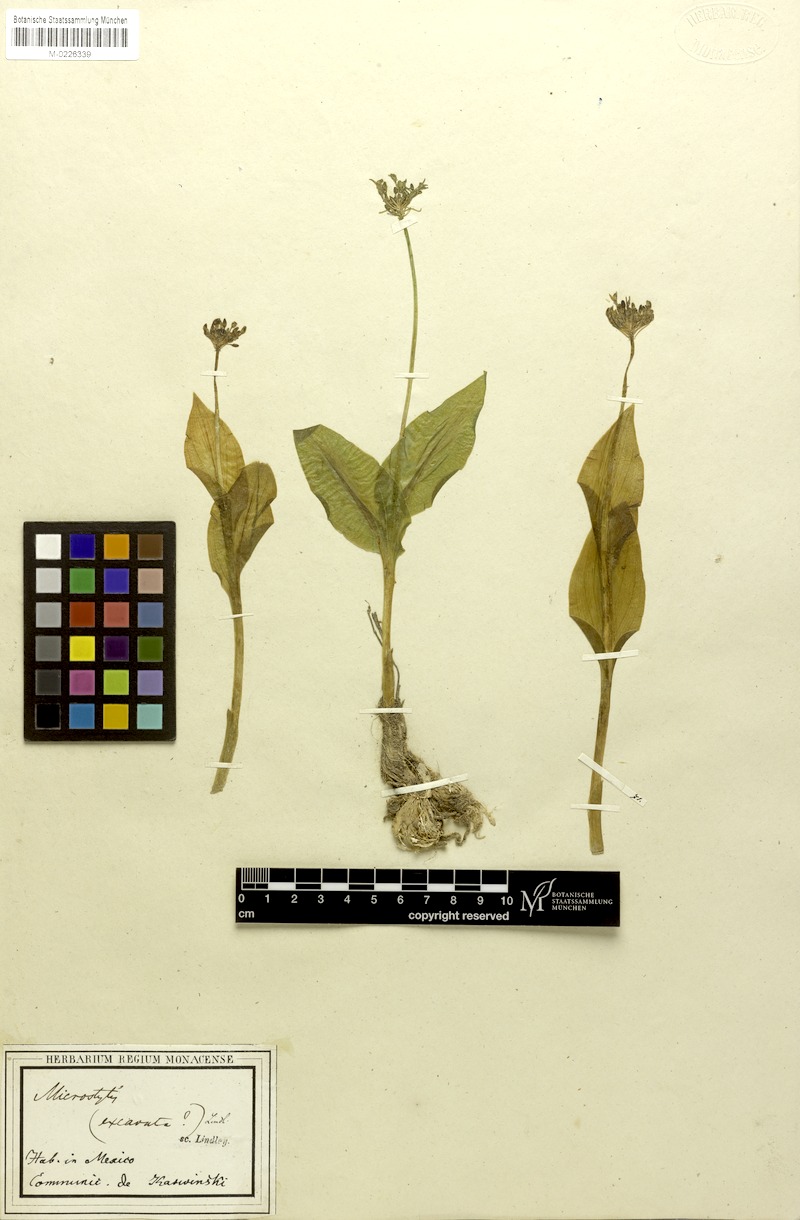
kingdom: Plantae
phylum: Tracheophyta
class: Liliopsida
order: Asparagales
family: Orchidaceae
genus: Malaxis
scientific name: Malaxis excavata
